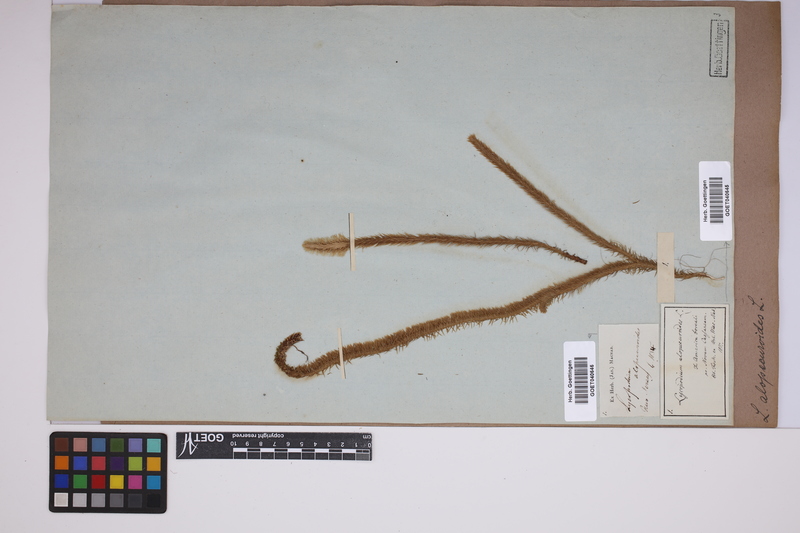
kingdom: Plantae
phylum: Tracheophyta
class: Lycopodiopsida
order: Lycopodiales
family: Lycopodiaceae
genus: Lycopodiella
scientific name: Lycopodiella alopecuroides
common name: Foxtail clubmoss
